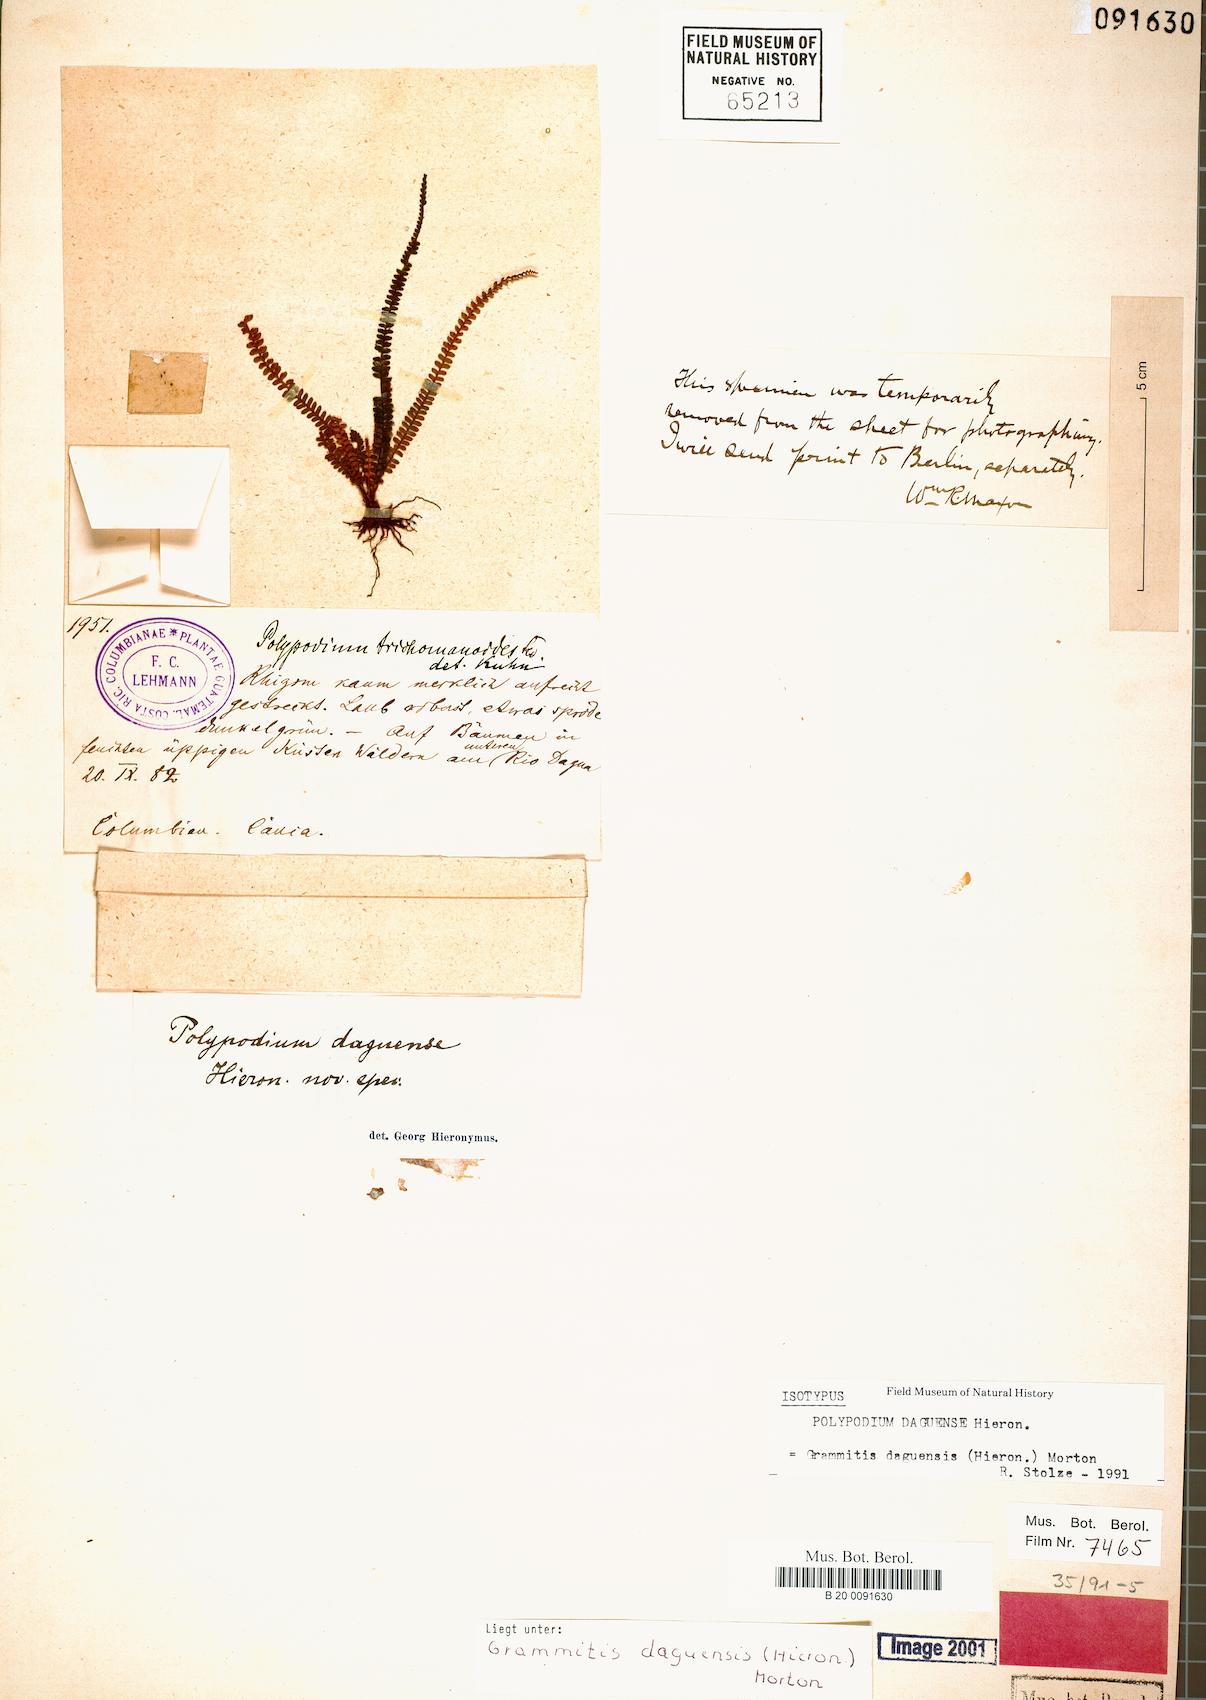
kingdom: Plantae
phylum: Tracheophyta
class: Polypodiopsida
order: Polypodiales
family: Polypodiaceae
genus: Moranopteris
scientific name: Moranopteris taenifolia
